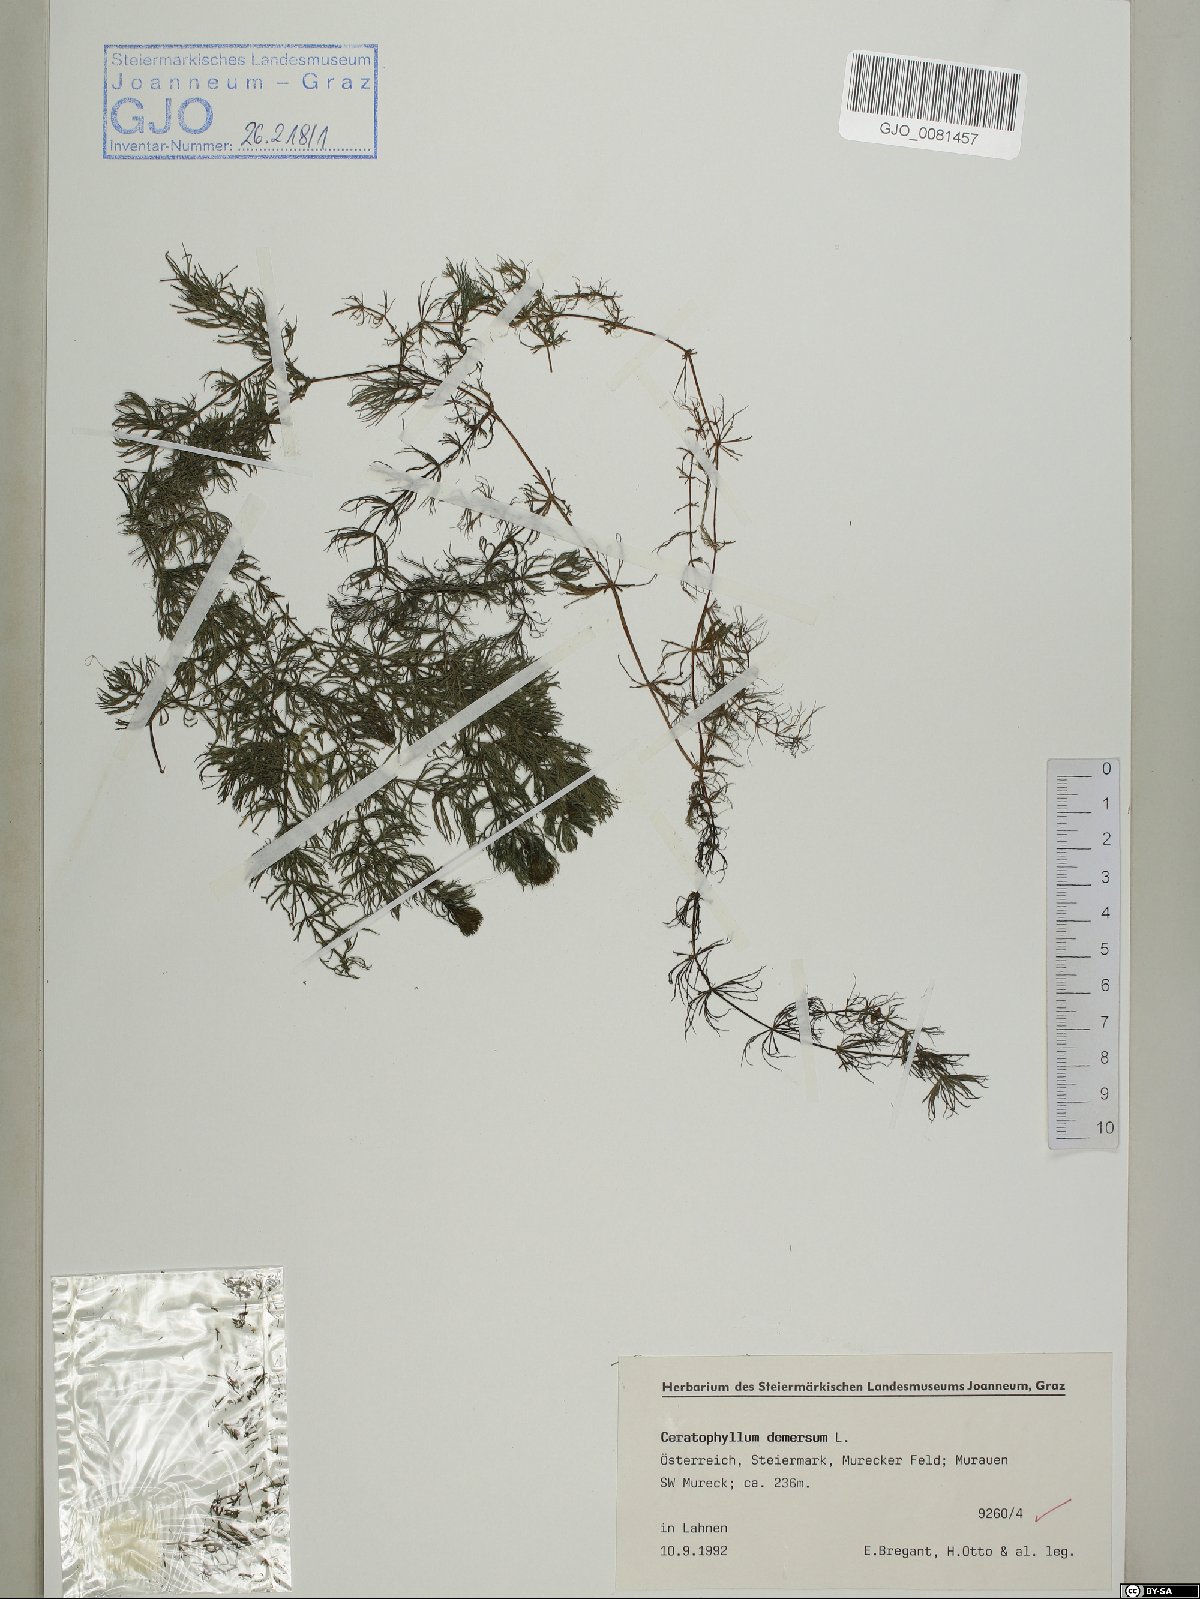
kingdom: Plantae
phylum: Tracheophyta
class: Magnoliopsida
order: Ceratophyllales
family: Ceratophyllaceae
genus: Ceratophyllum
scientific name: Ceratophyllum demersum
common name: Rigid hornwort
